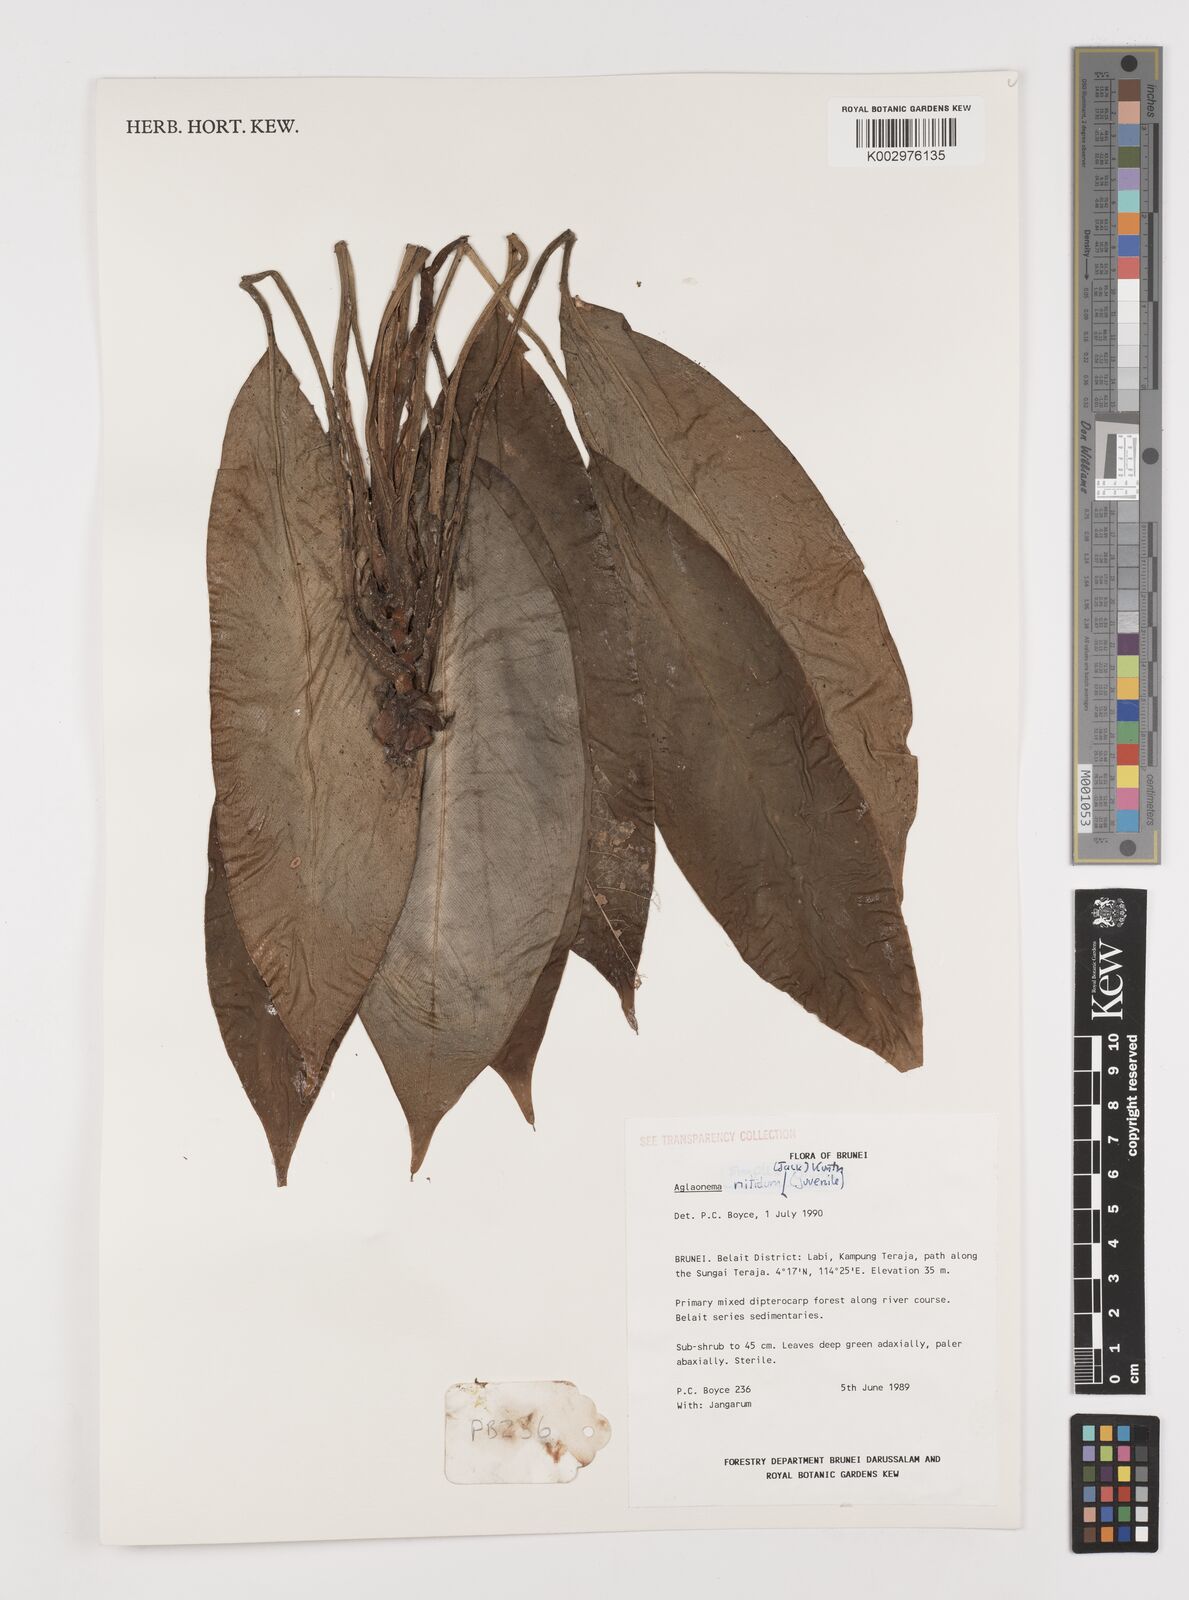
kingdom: Plantae
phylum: Tracheophyta
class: Liliopsida
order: Alismatales
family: Araceae
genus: Aglaonema
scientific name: Aglaonema nitidum
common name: Aglaonema aroid
